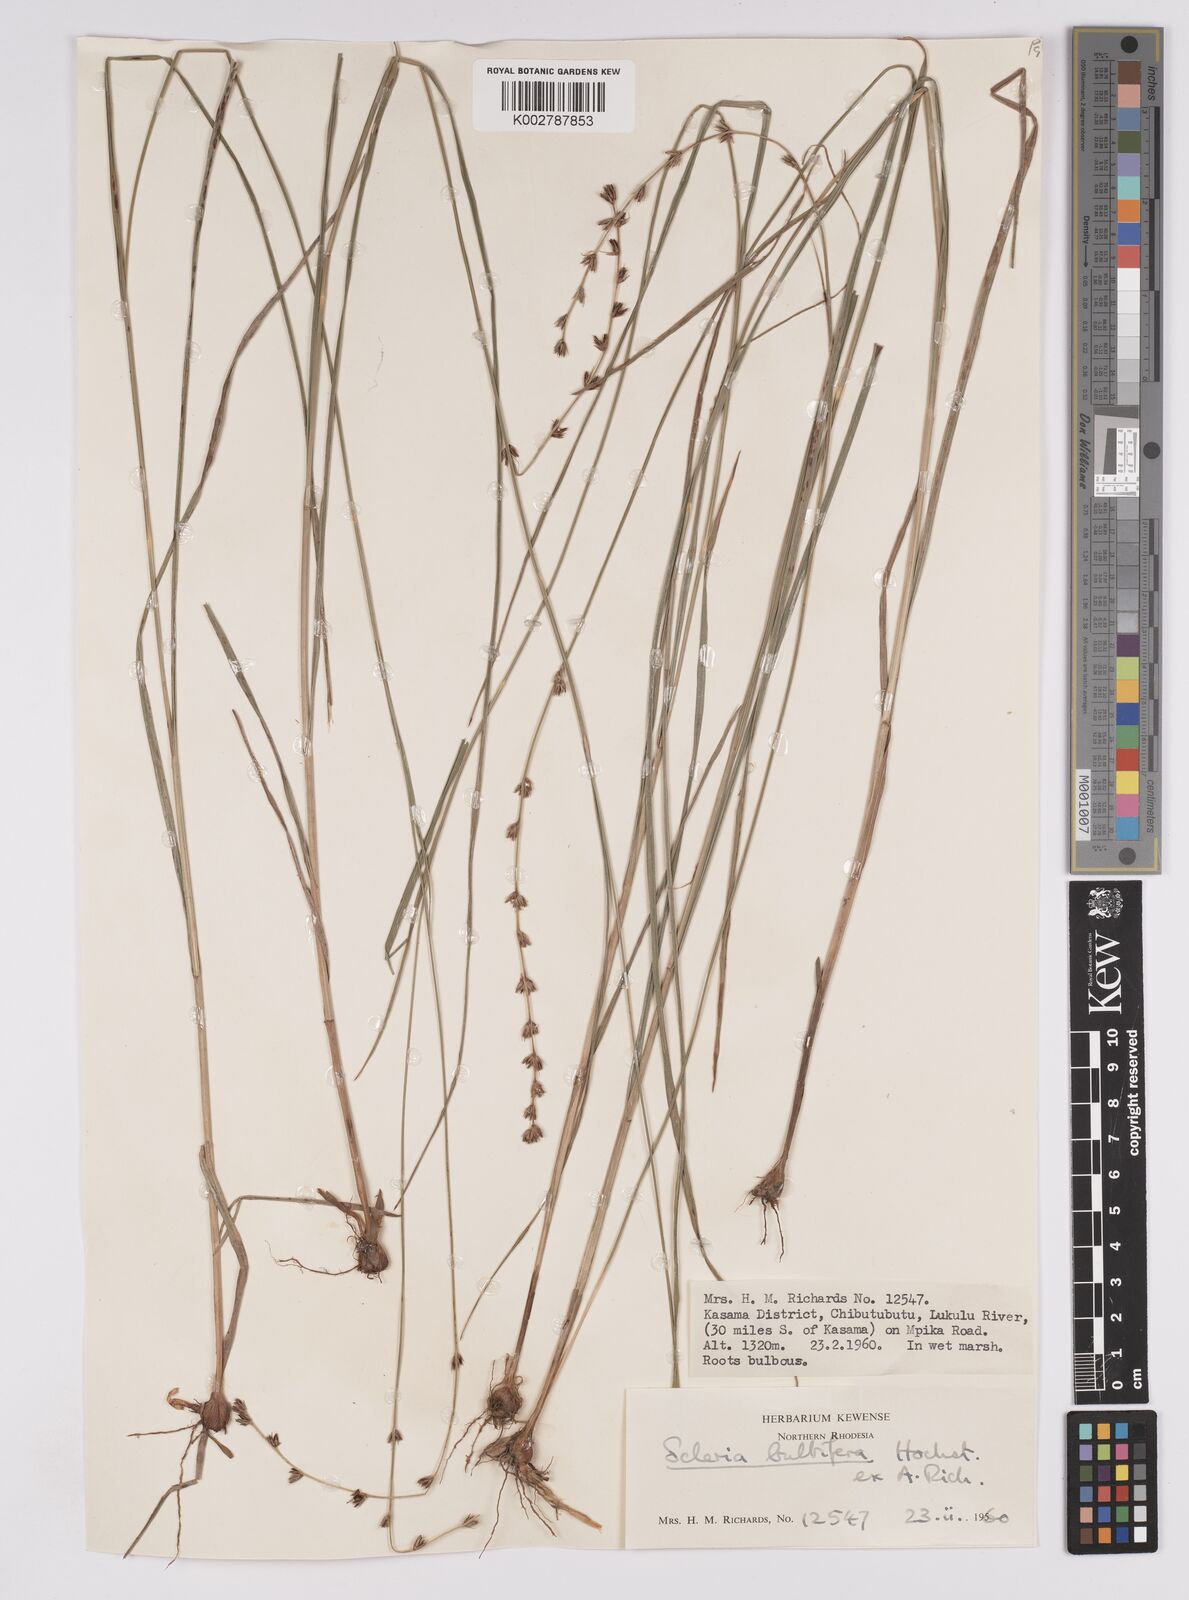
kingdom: Plantae
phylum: Tracheophyta
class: Liliopsida
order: Poales
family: Cyperaceae
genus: Scleria
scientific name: Scleria bulbifera
